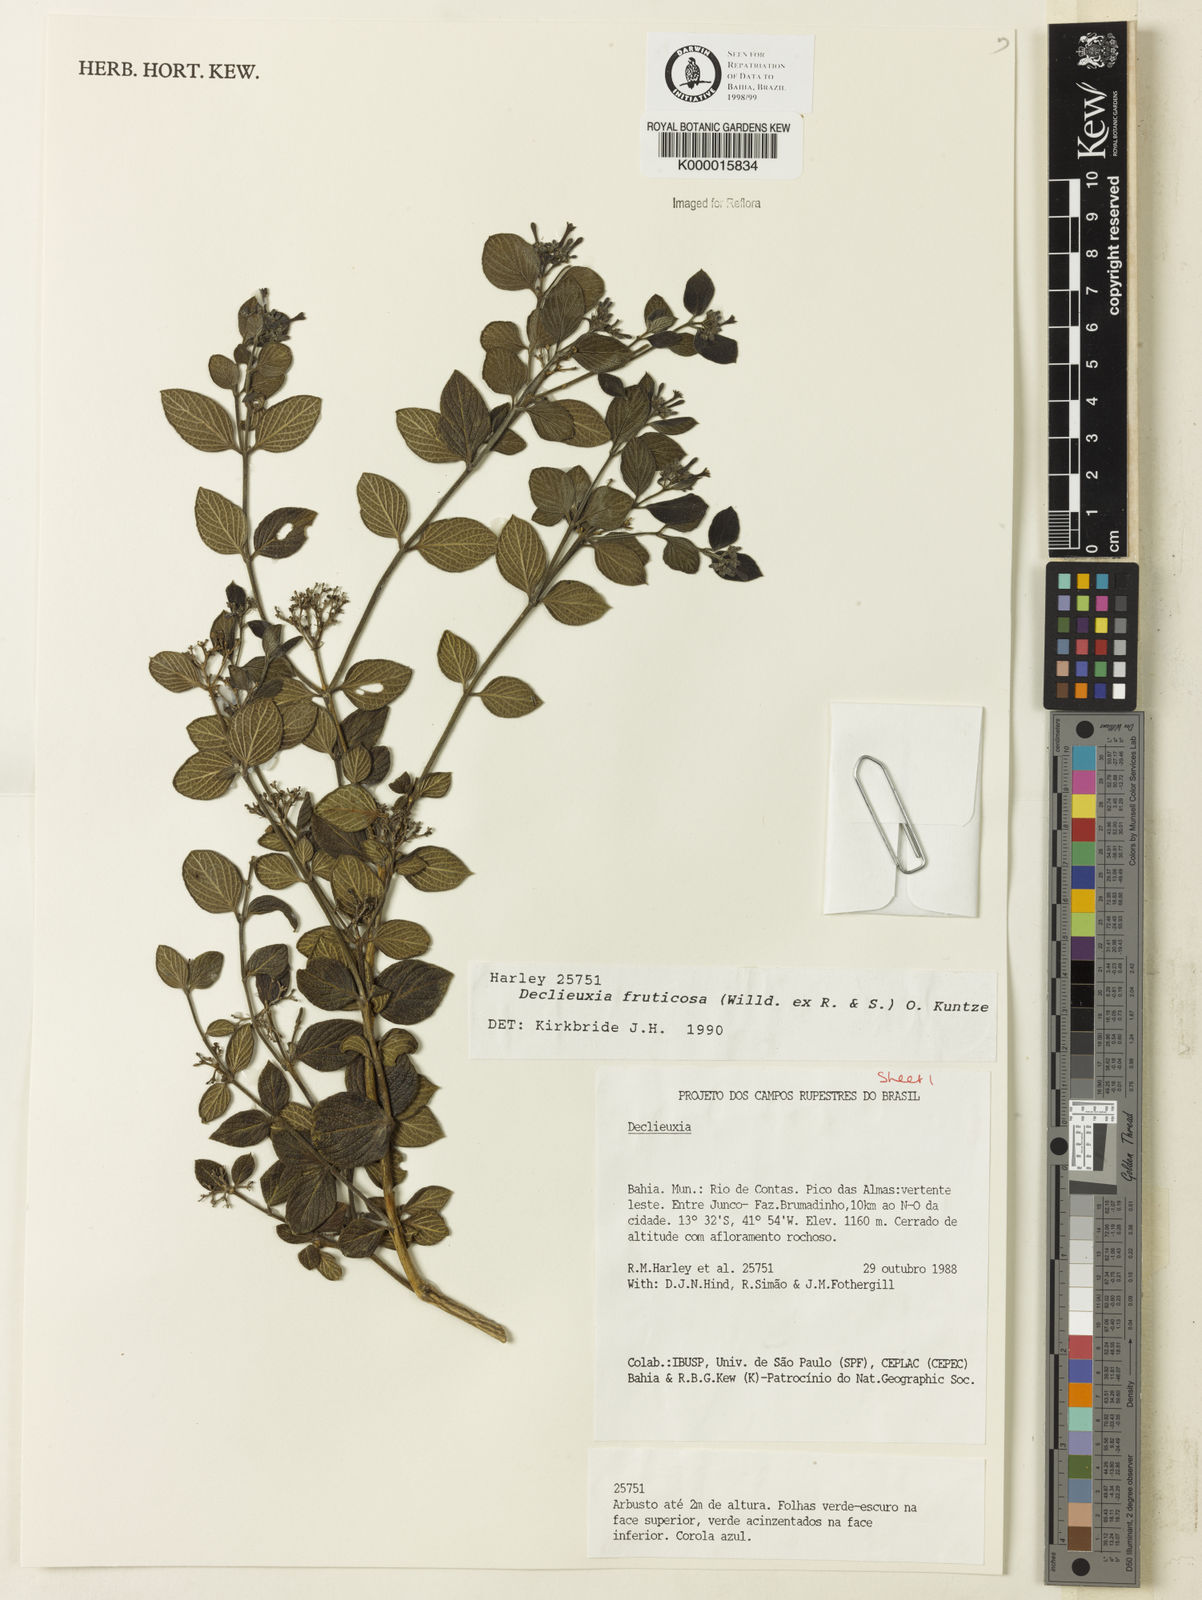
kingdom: Plantae
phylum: Tracheophyta
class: Magnoliopsida
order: Gentianales
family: Rubiaceae
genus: Declieuxia
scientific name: Declieuxia fruticosa
